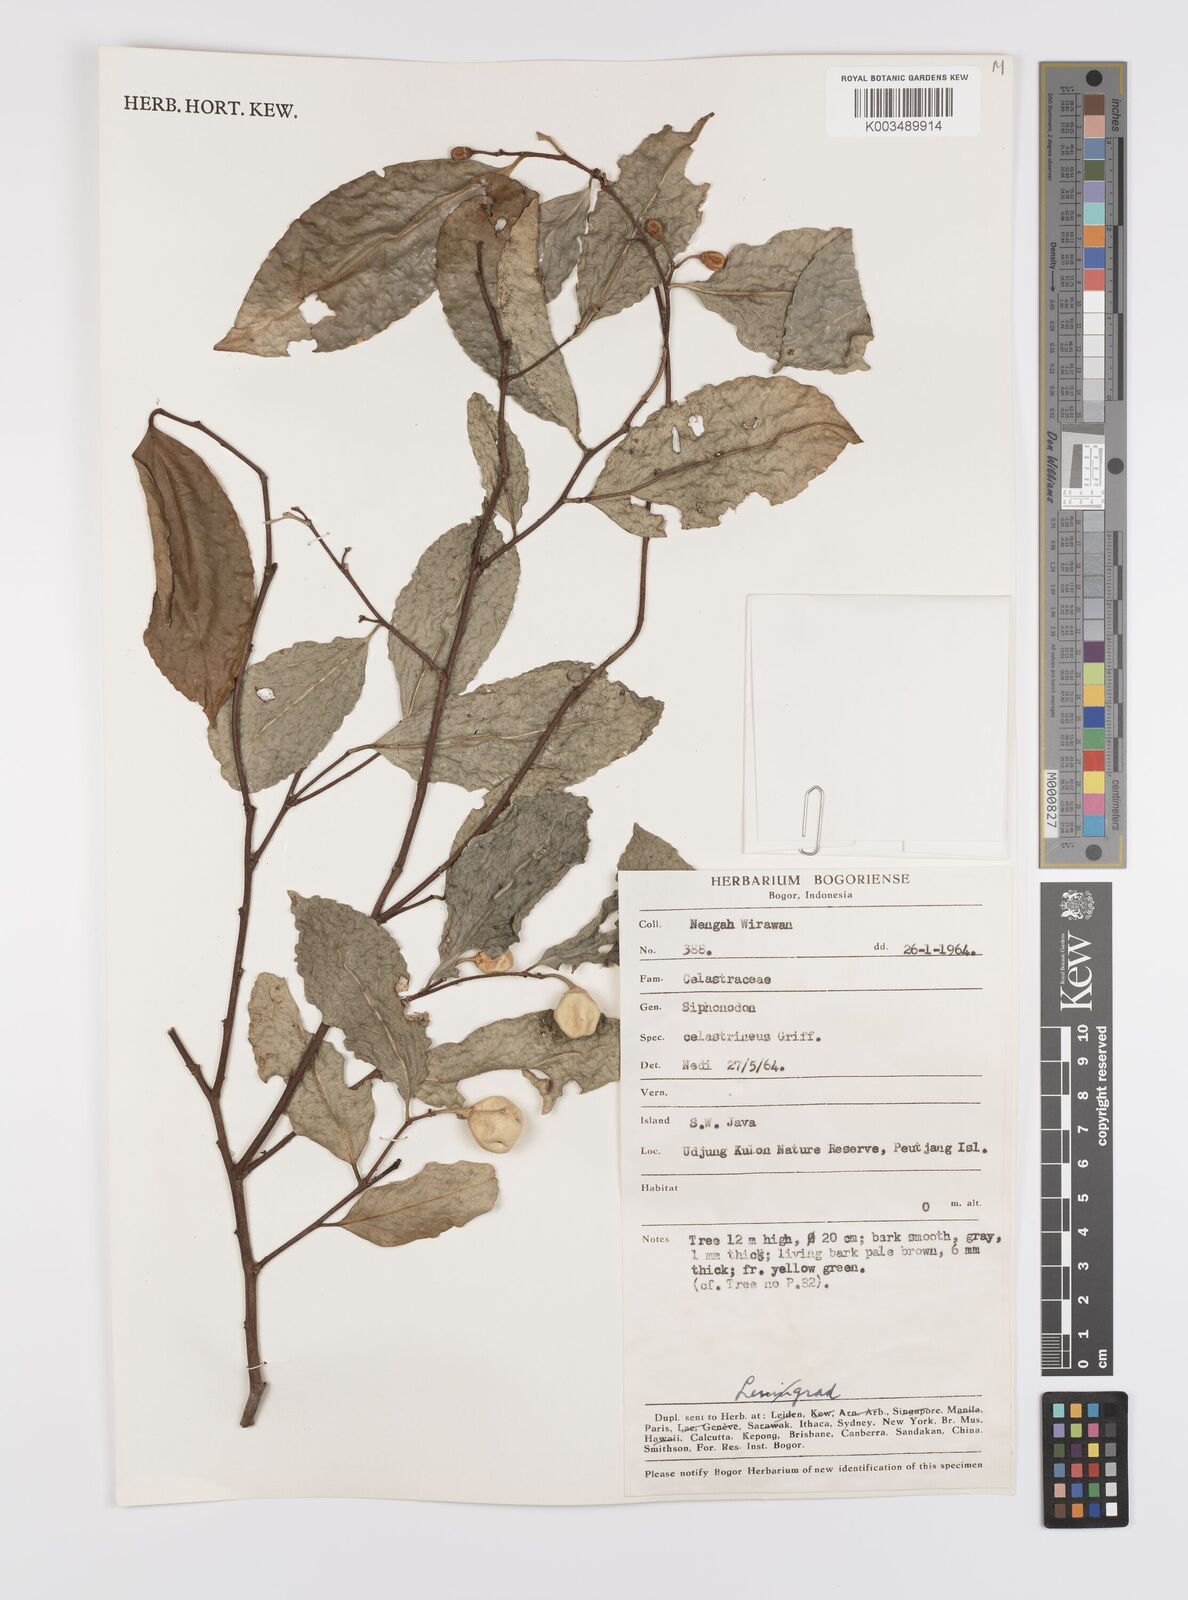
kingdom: Plantae
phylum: Tracheophyta
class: Magnoliopsida
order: Celastrales
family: Celastraceae
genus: Siphonodon
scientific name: Siphonodon celastrineus
